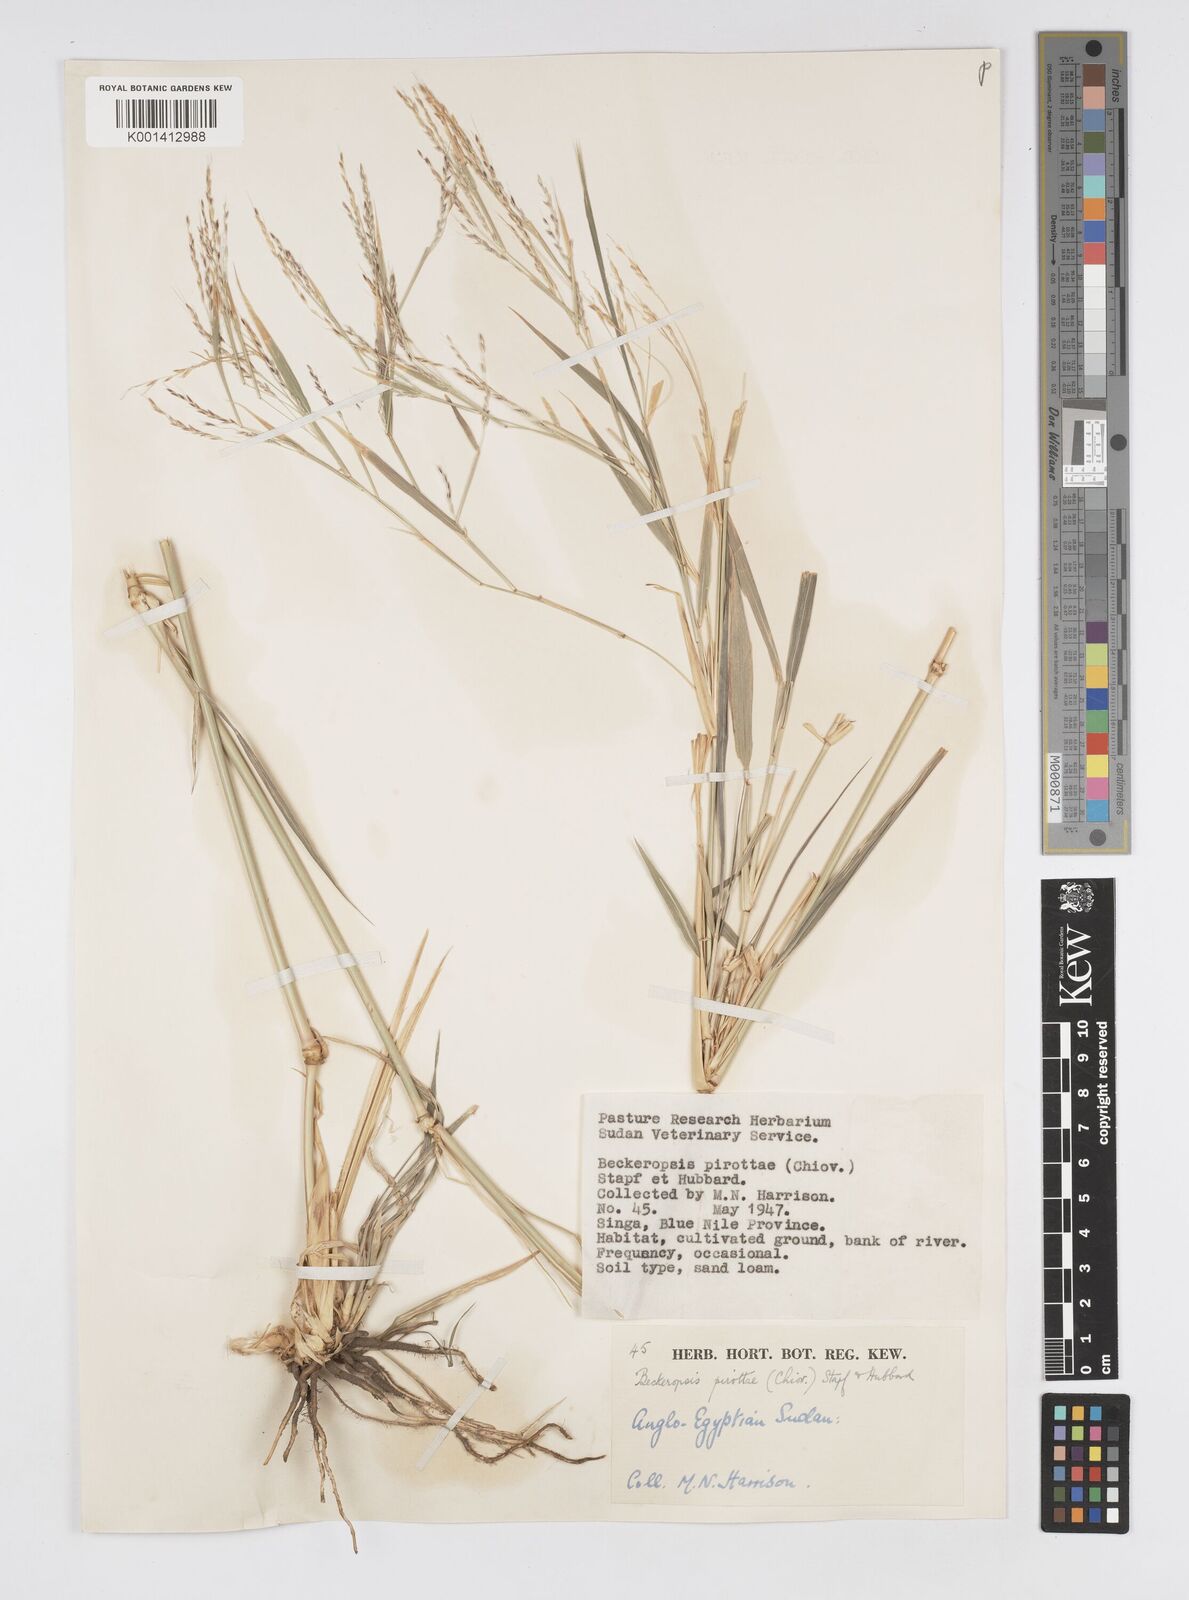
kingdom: Plantae
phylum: Tracheophyta
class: Liliopsida
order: Poales
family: Poaceae
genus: Cenchrus
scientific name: Cenchrus pirottae
